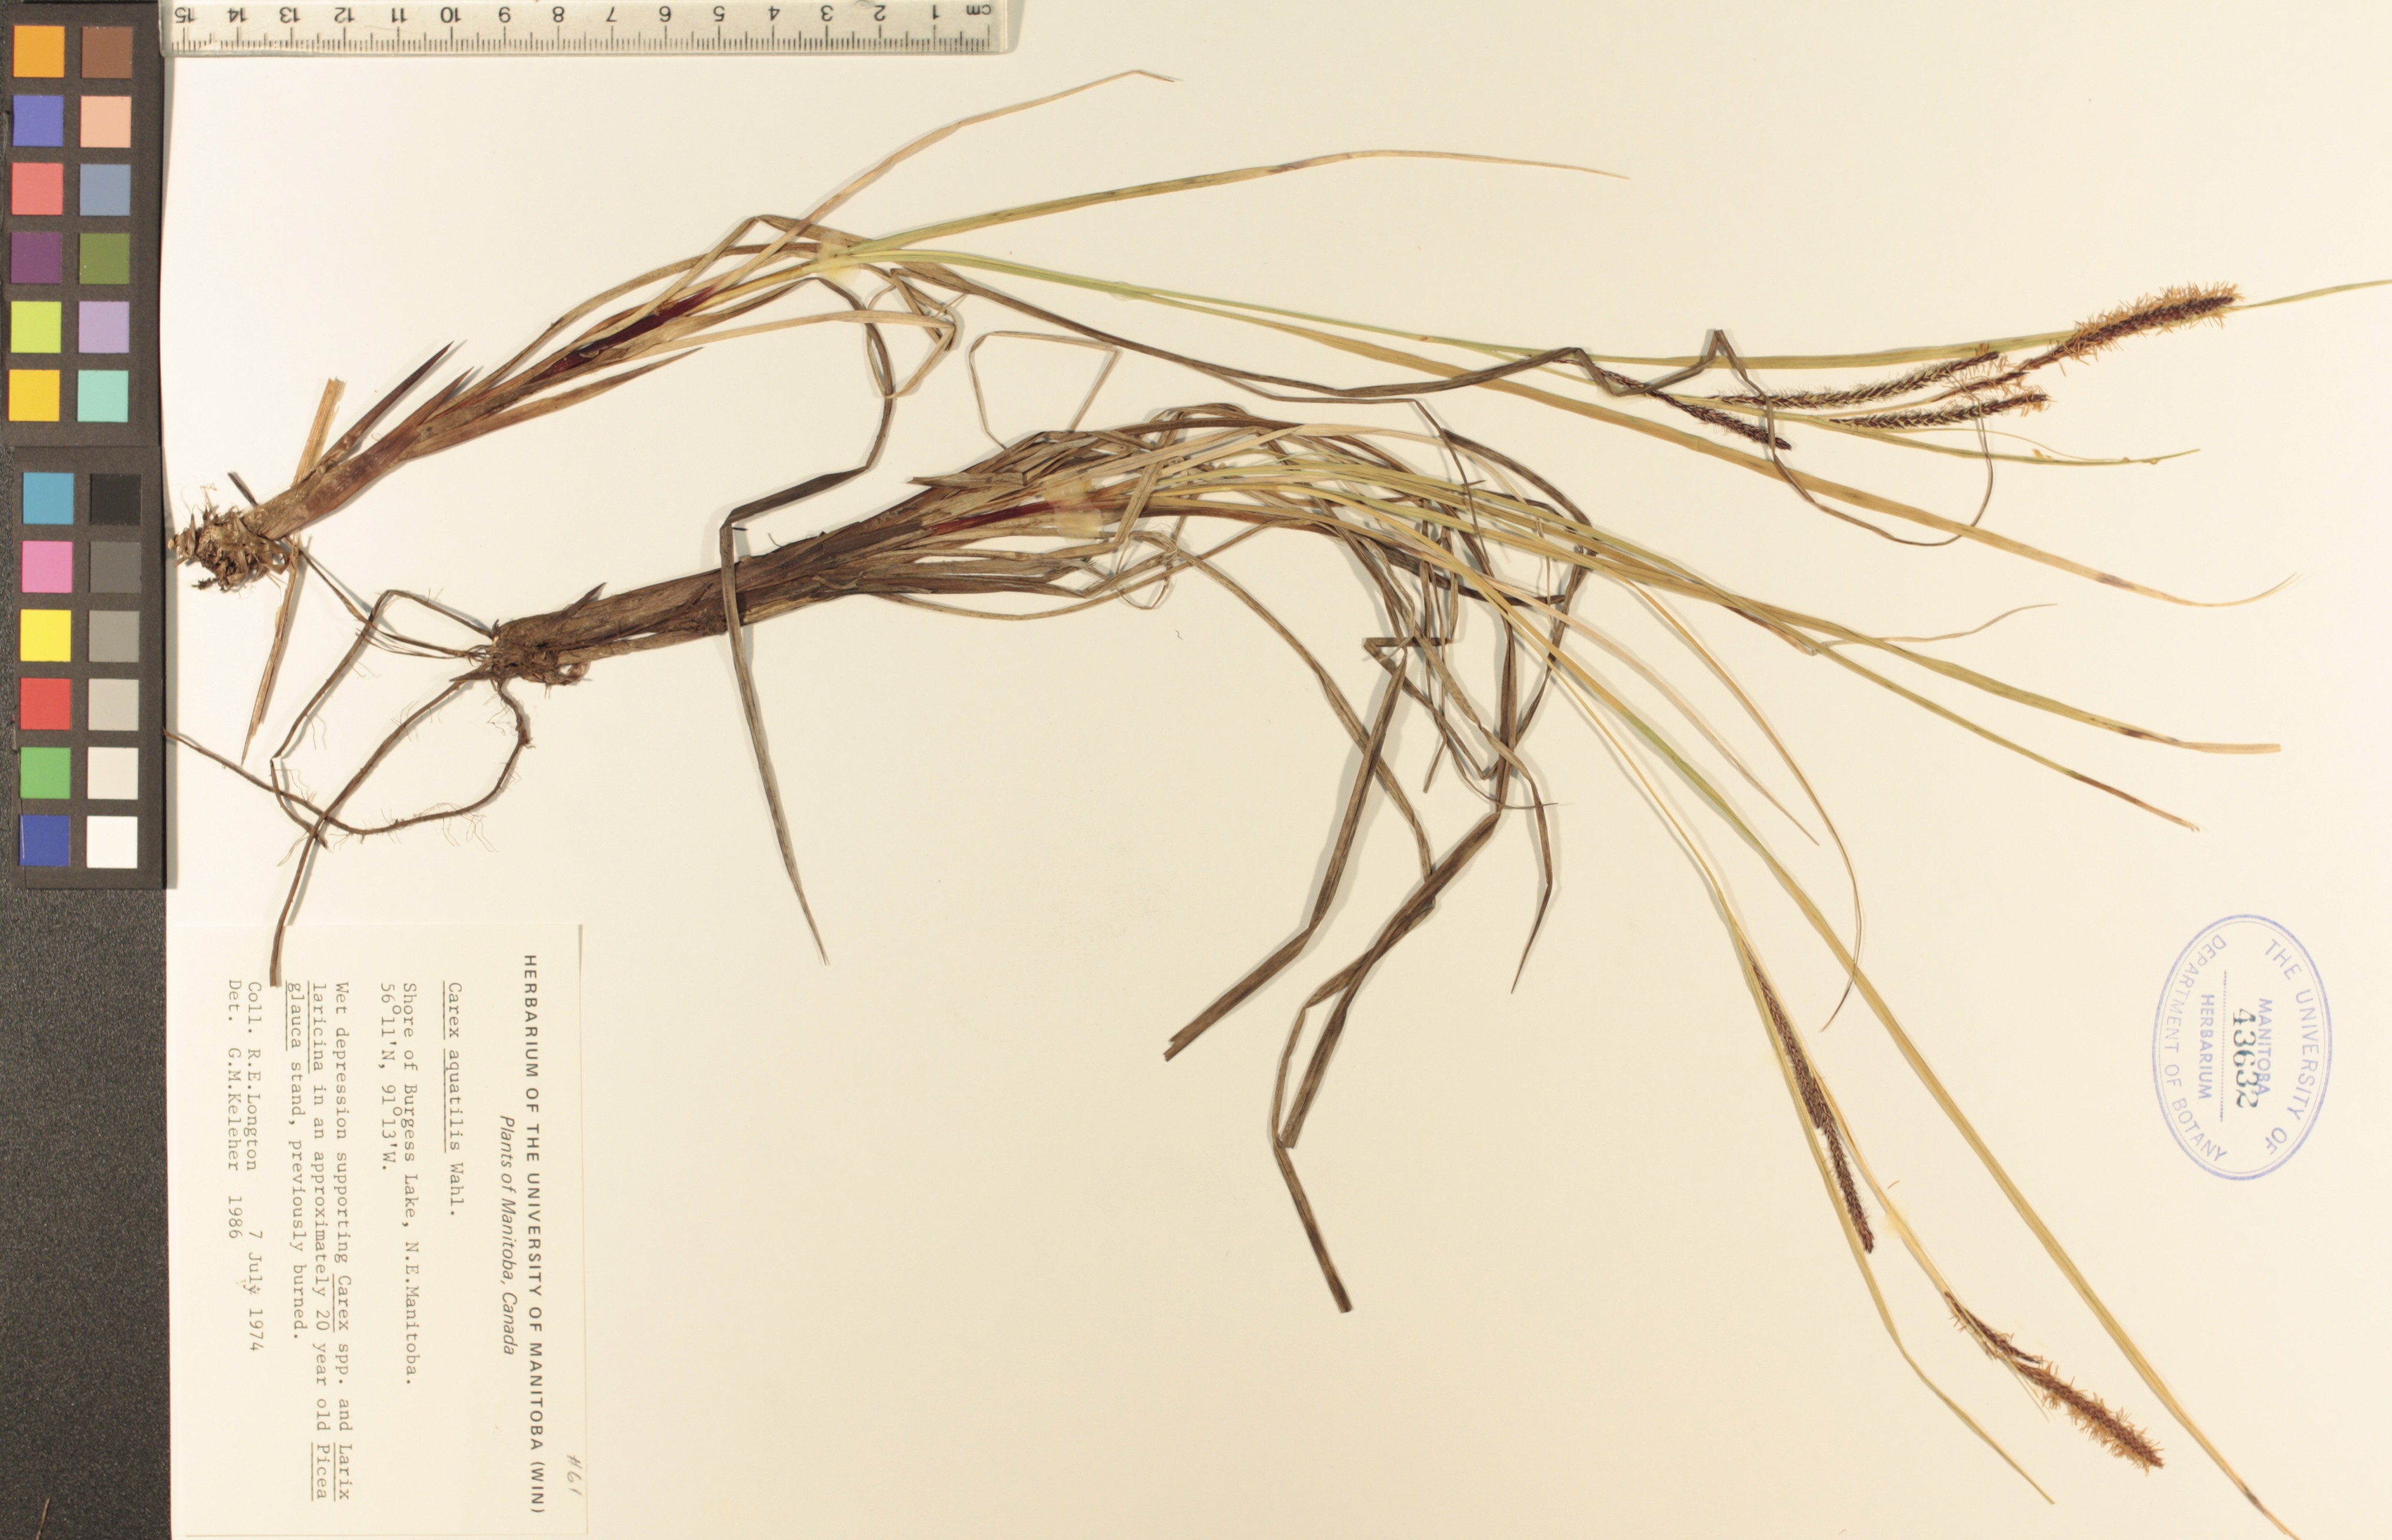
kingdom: Plantae
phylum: Tracheophyta
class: Liliopsida
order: Poales
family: Cyperaceae
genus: Carex
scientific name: Carex aquatilis
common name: Water sedge
